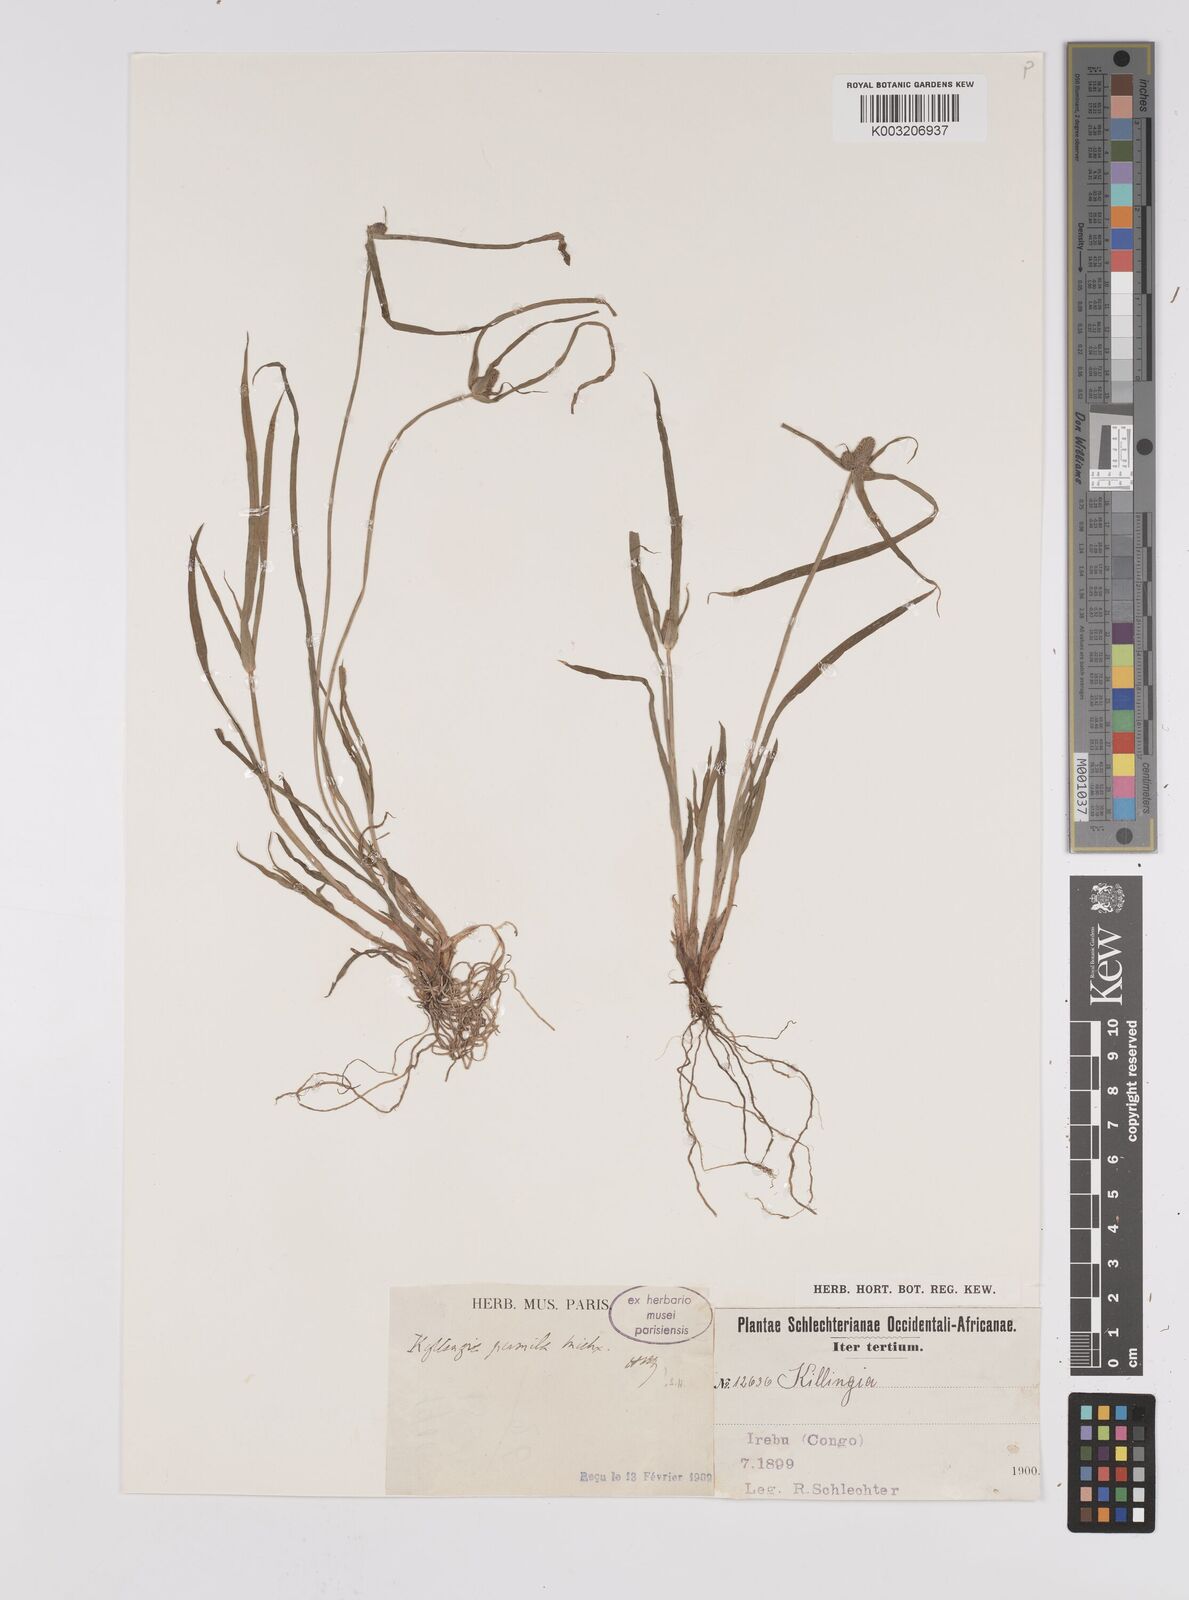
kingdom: Plantae
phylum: Tracheophyta
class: Liliopsida
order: Poales
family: Cyperaceae
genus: Cyperus
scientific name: Cyperus hortensis
